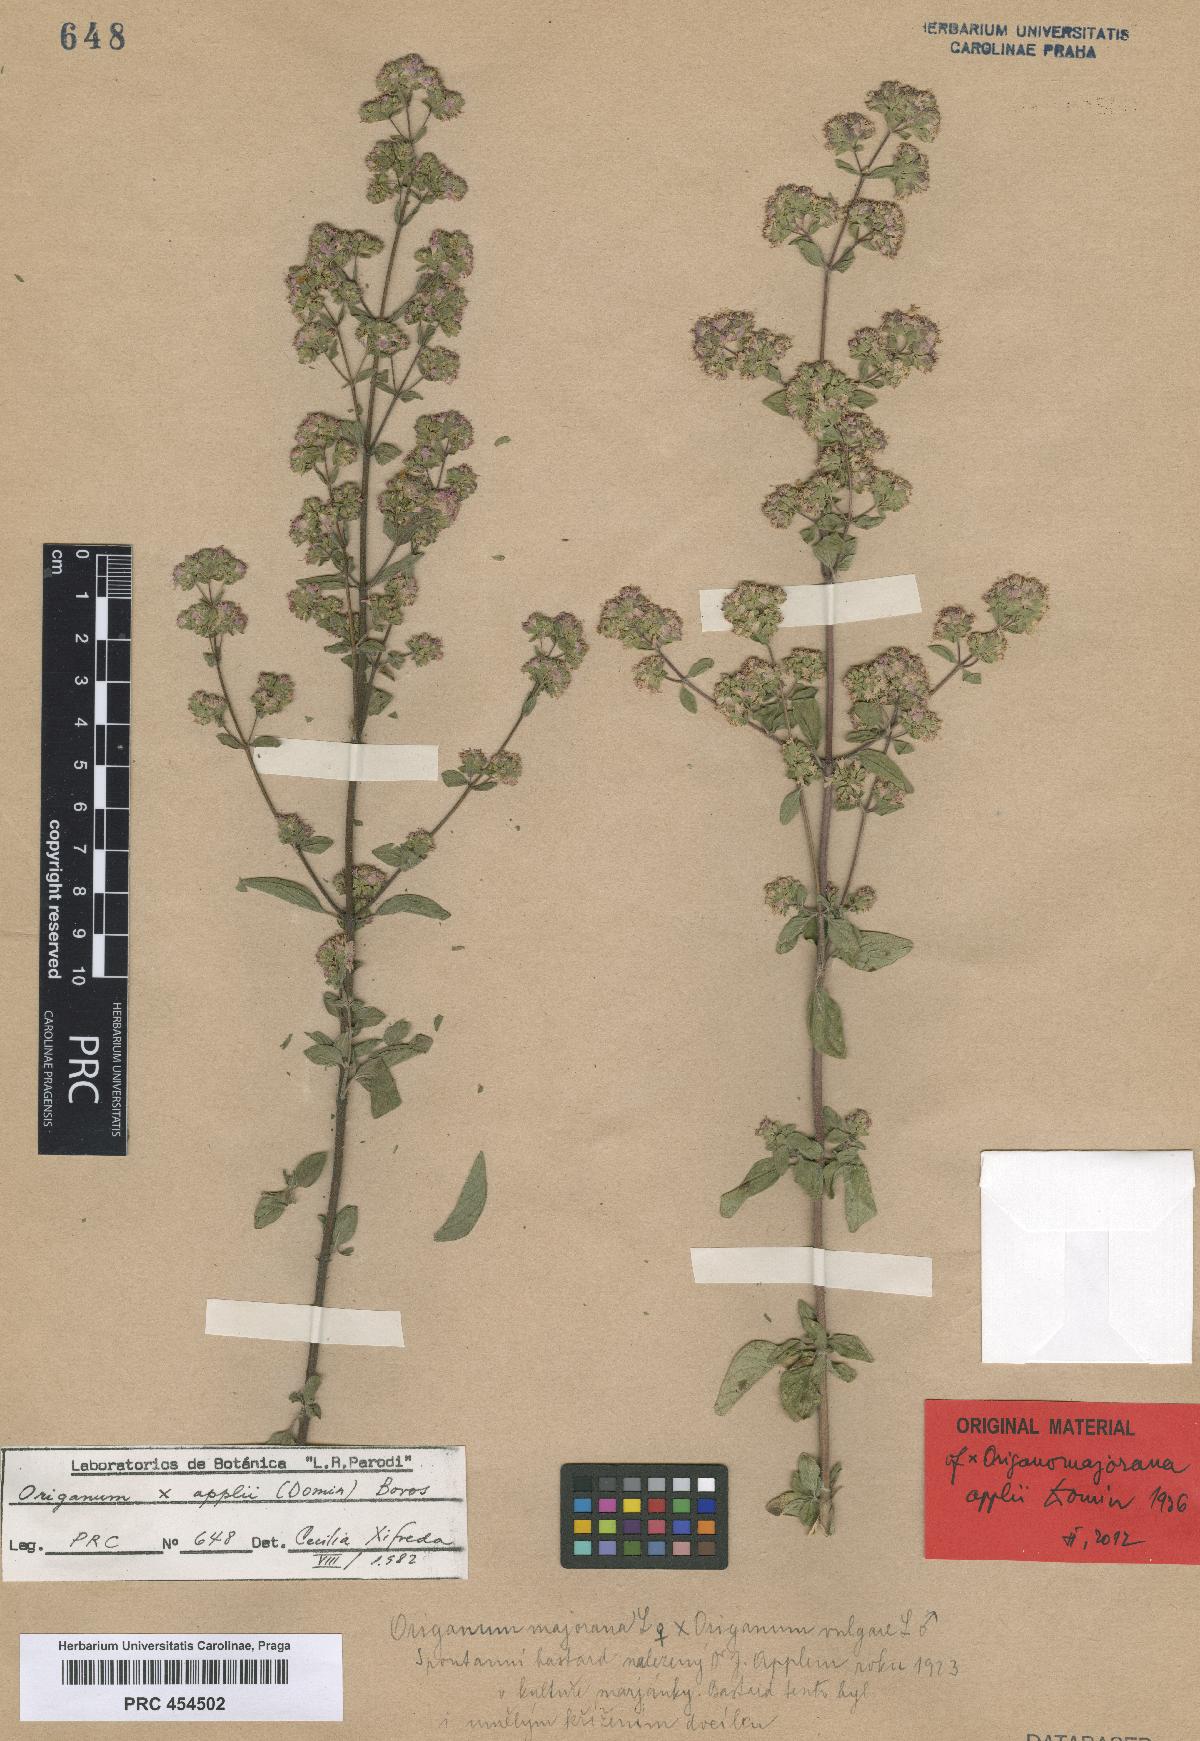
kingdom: Plantae
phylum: Tracheophyta
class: Magnoliopsida
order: Lamiales
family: Lamiaceae
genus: Origanum
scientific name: Origanum paniculatum
